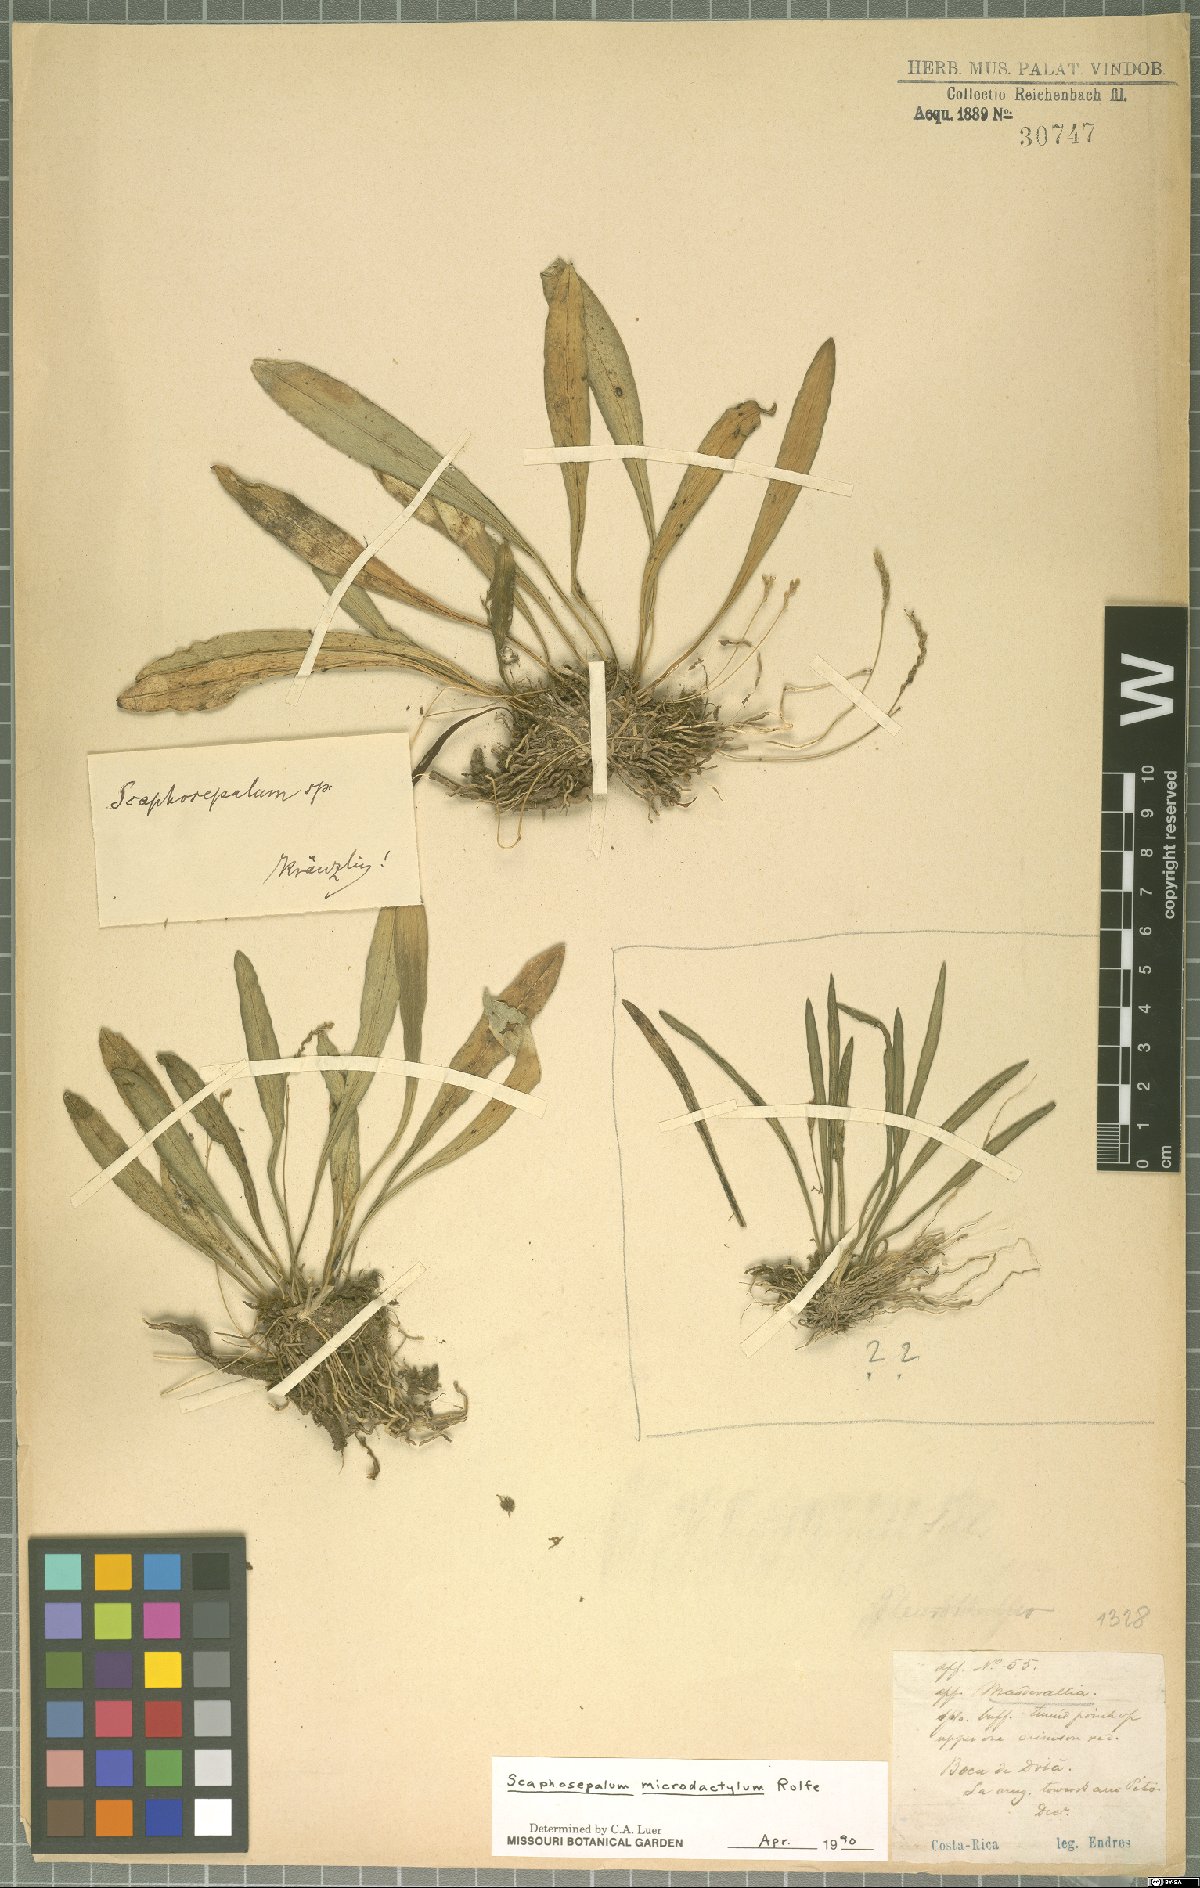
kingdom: Plantae
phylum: Tracheophyta
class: Liliopsida
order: Asparagales
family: Orchidaceae
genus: Scaphosepalum
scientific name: Scaphosepalum microdactylum
